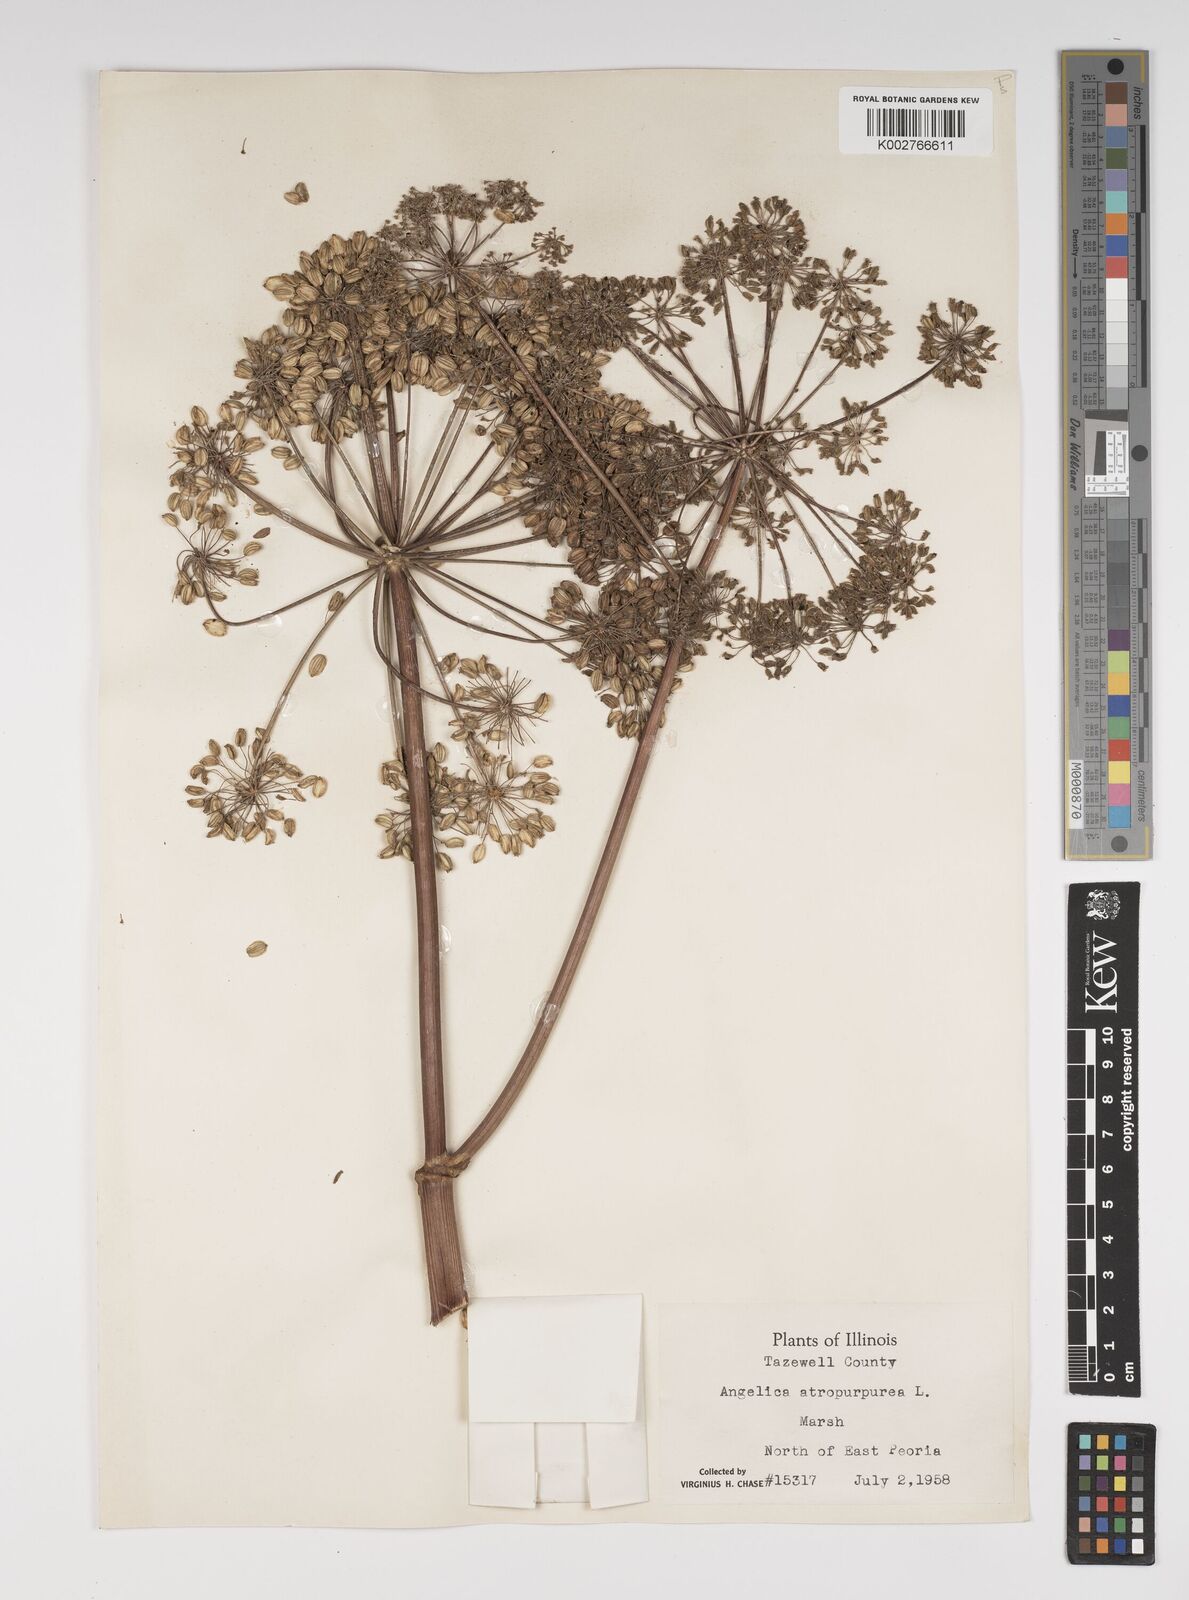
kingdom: Plantae
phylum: Tracheophyta
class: Magnoliopsida
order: Apiales
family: Apiaceae
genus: Angelica
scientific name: Angelica atropurpurea
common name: Great angelica
